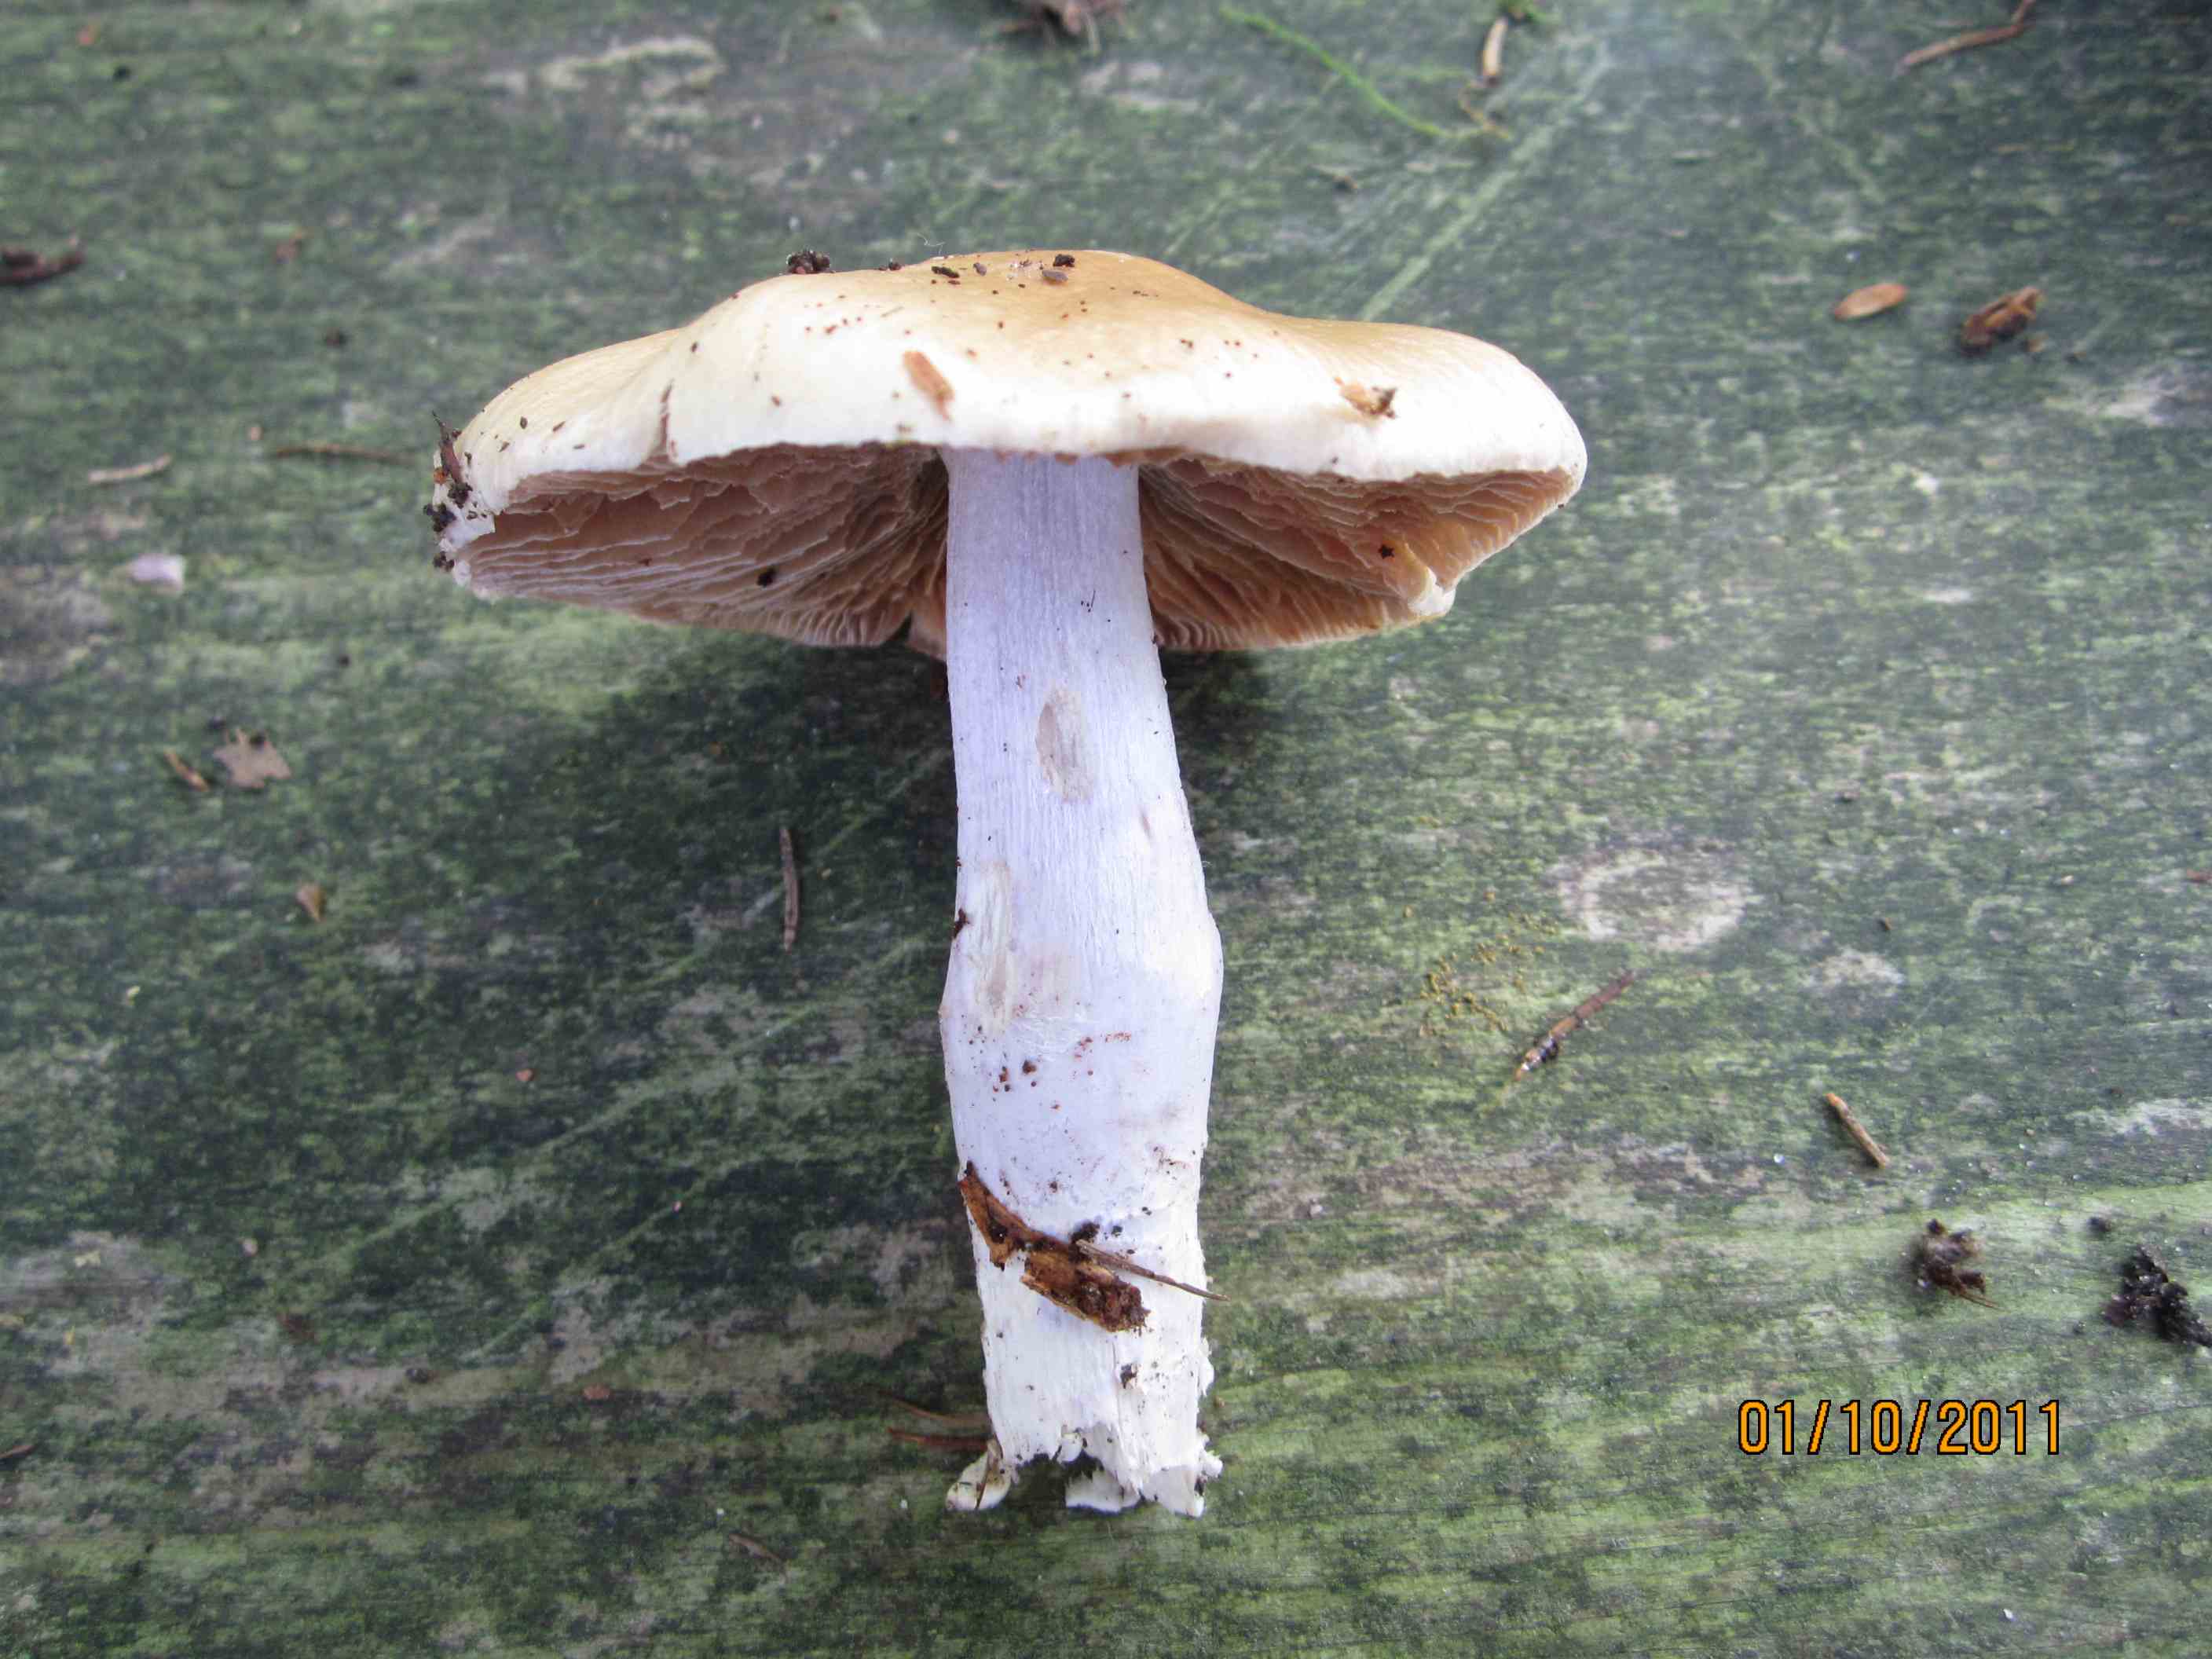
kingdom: Fungi
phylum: Basidiomycota
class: Agaricomycetes
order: Agaricales
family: Cortinariaceae
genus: Cortinarius
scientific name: Cortinarius elatior
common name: høj slørhat
